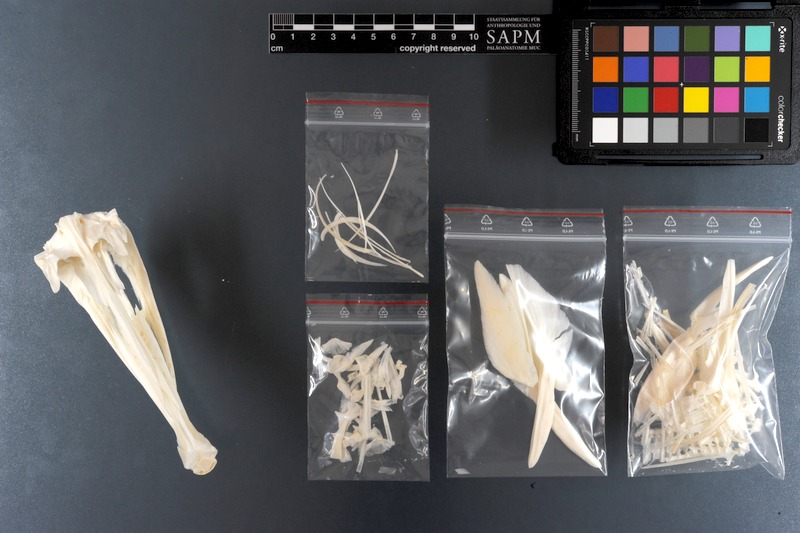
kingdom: Animalia
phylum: Chordata
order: Tetraodontiformes
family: Monacanthidae
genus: Aluterus
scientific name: Aluterus monoceros
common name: Batfish
